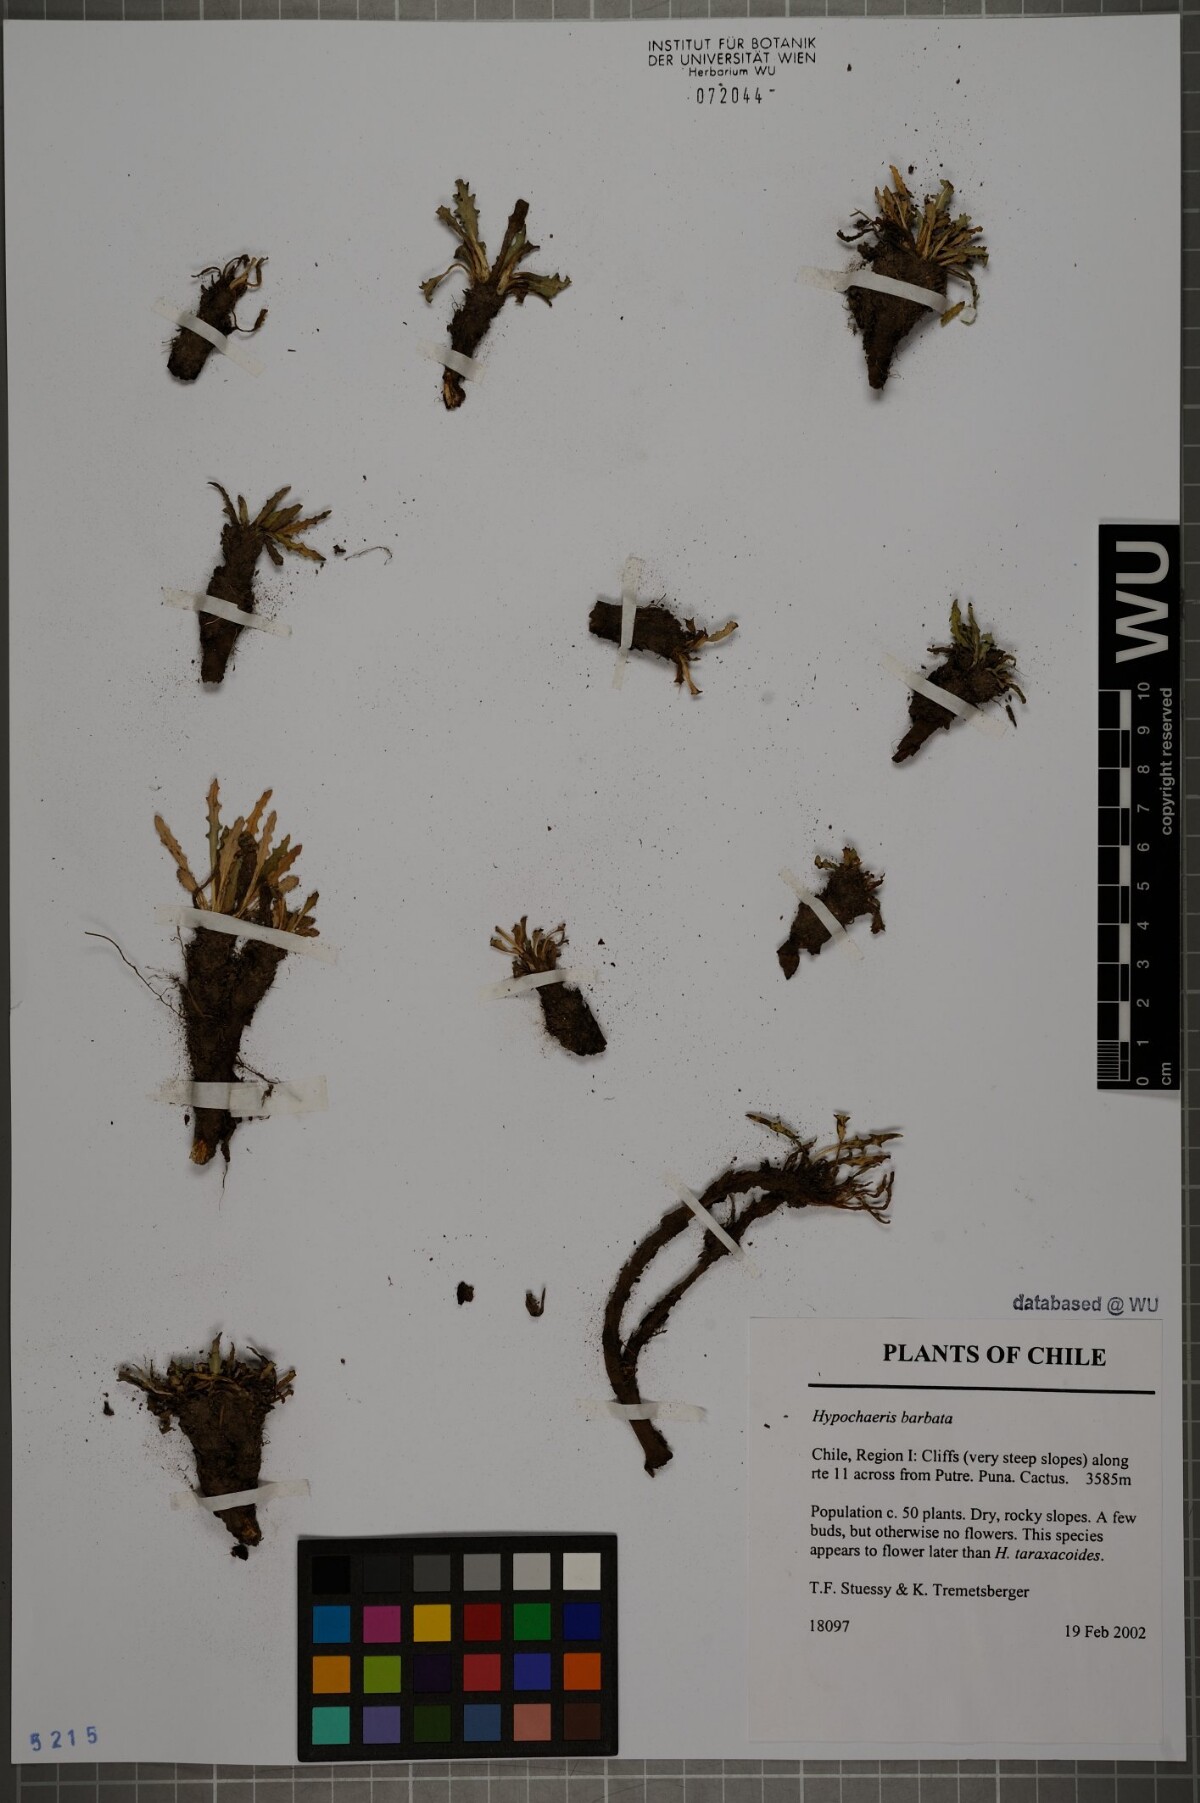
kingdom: Plantae
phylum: Tracheophyta
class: Magnoliopsida
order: Asterales
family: Asteraceae
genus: Hypochaeris
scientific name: Hypochaeris sessiliflora
